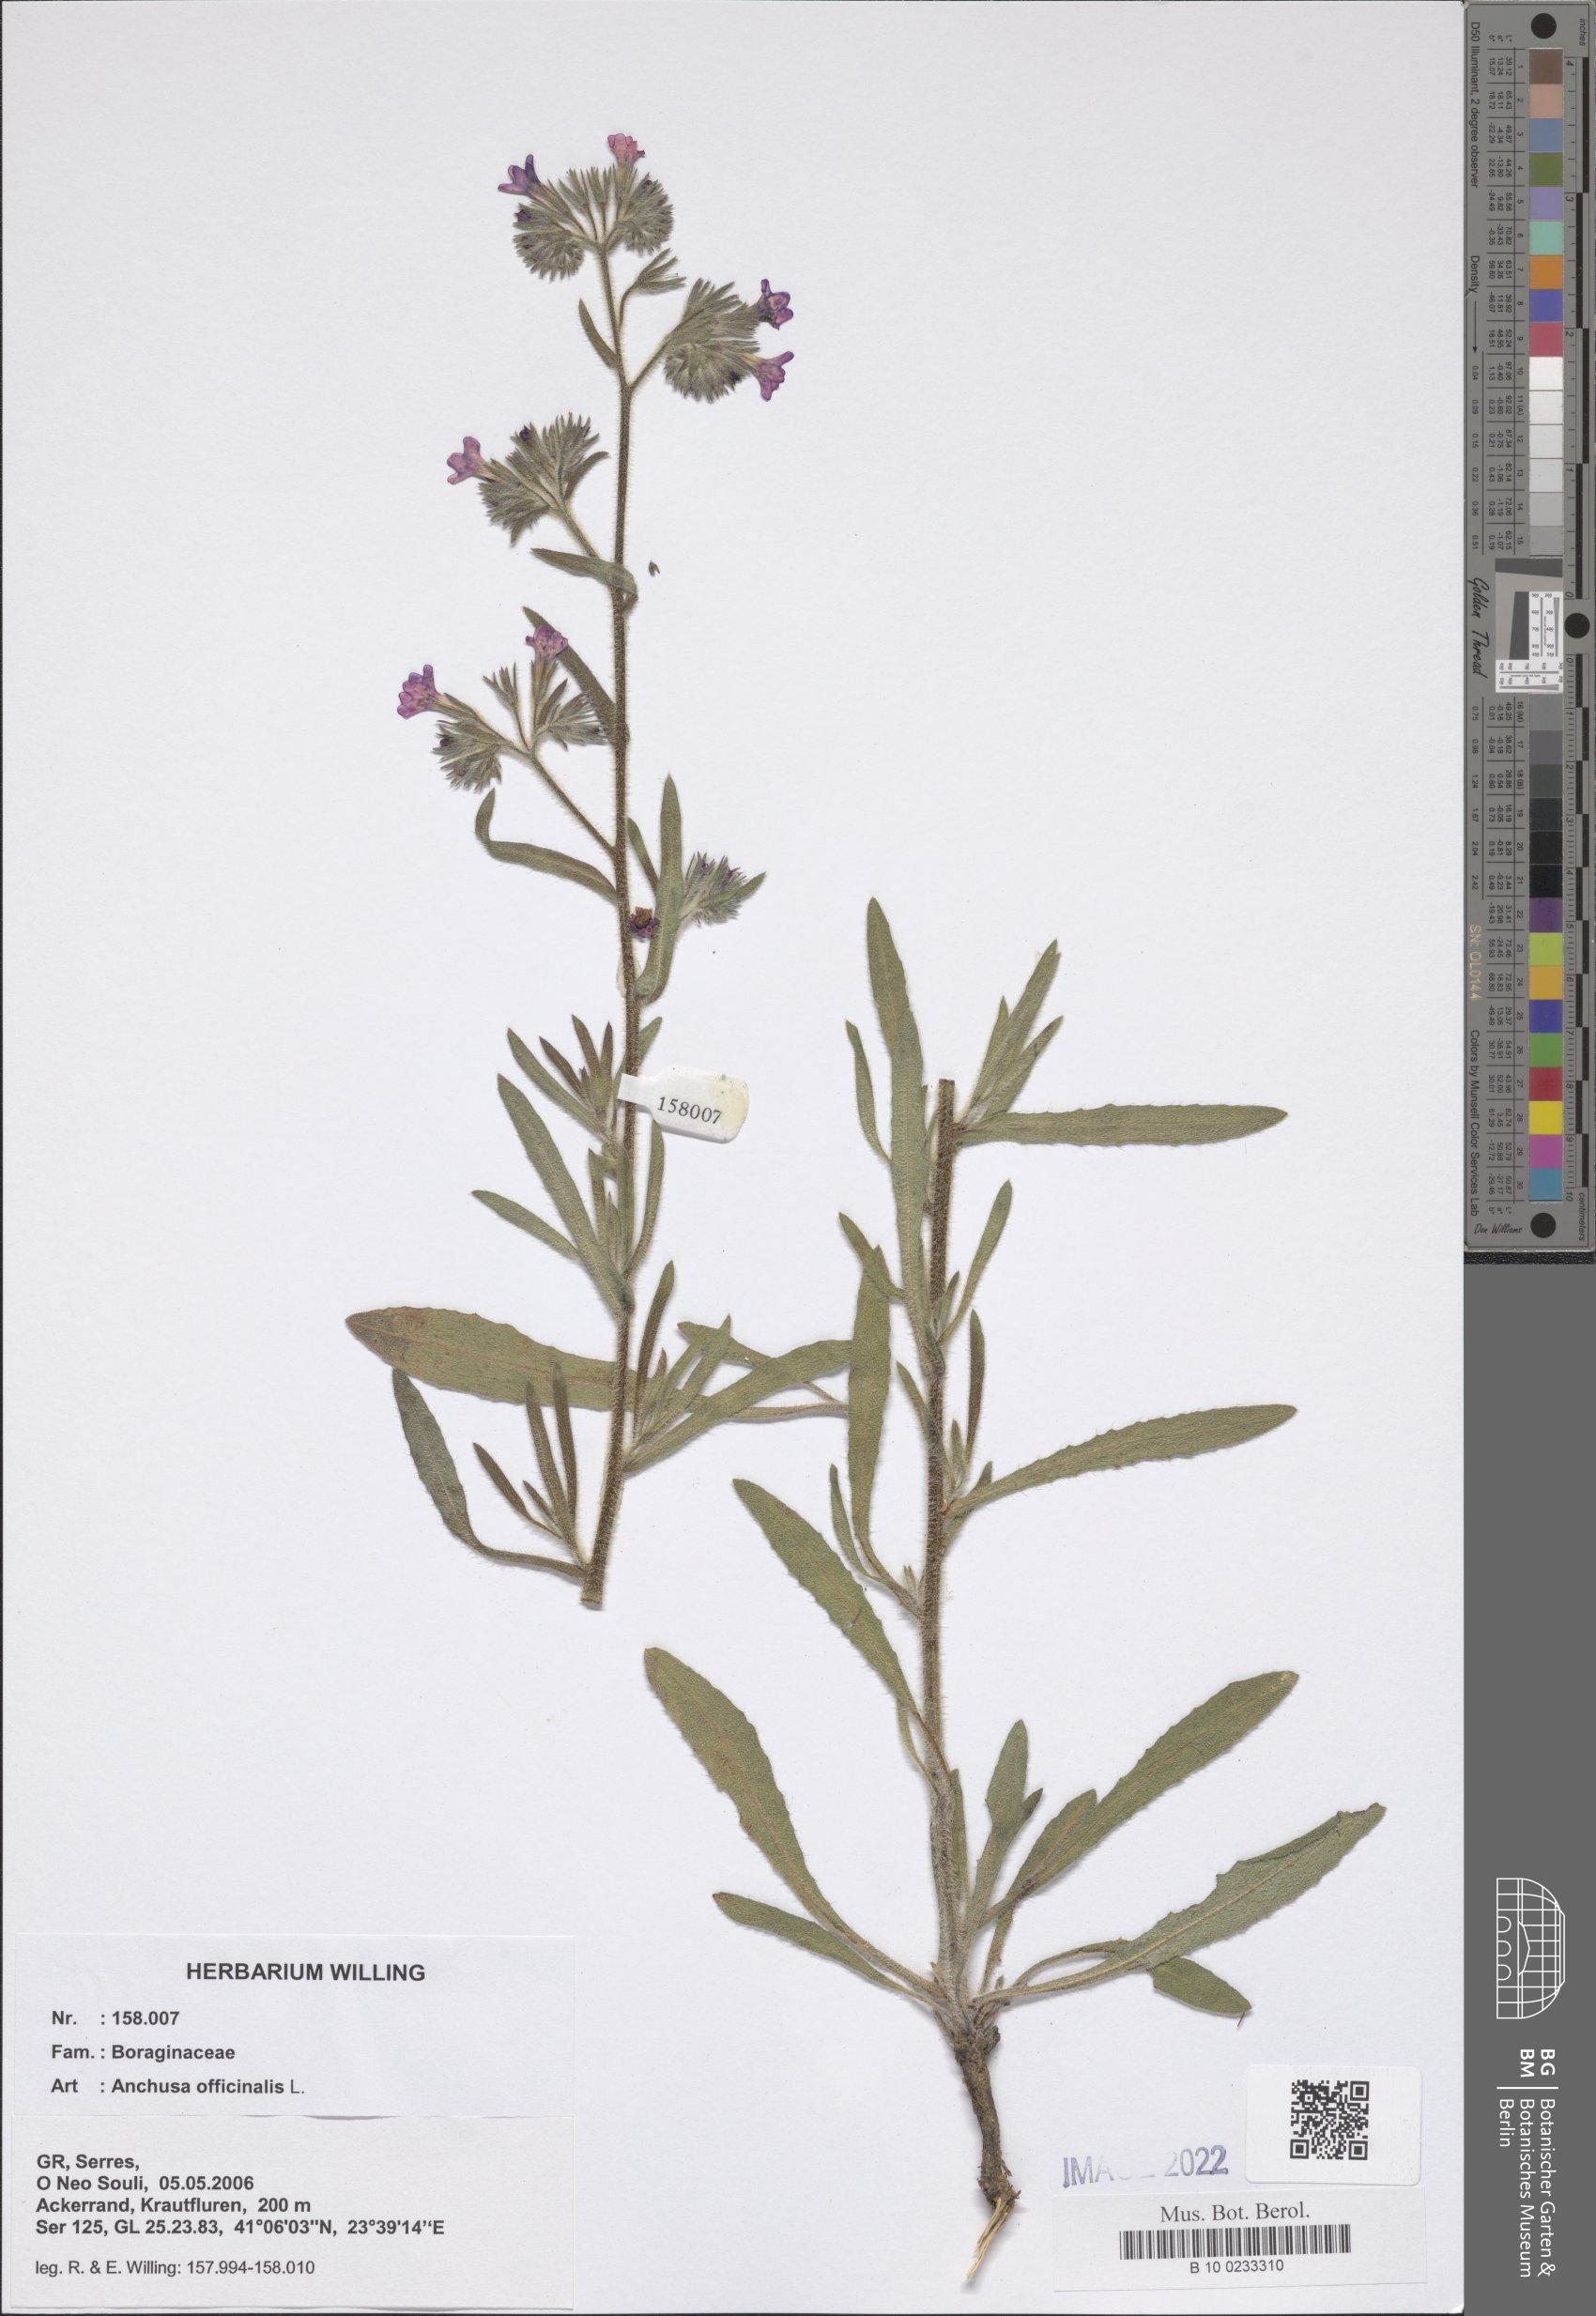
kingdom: Plantae
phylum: Tracheophyta
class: Magnoliopsida
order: Boraginales
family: Boraginaceae
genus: Anchusa
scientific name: Anchusa officinalis
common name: Alkanet
